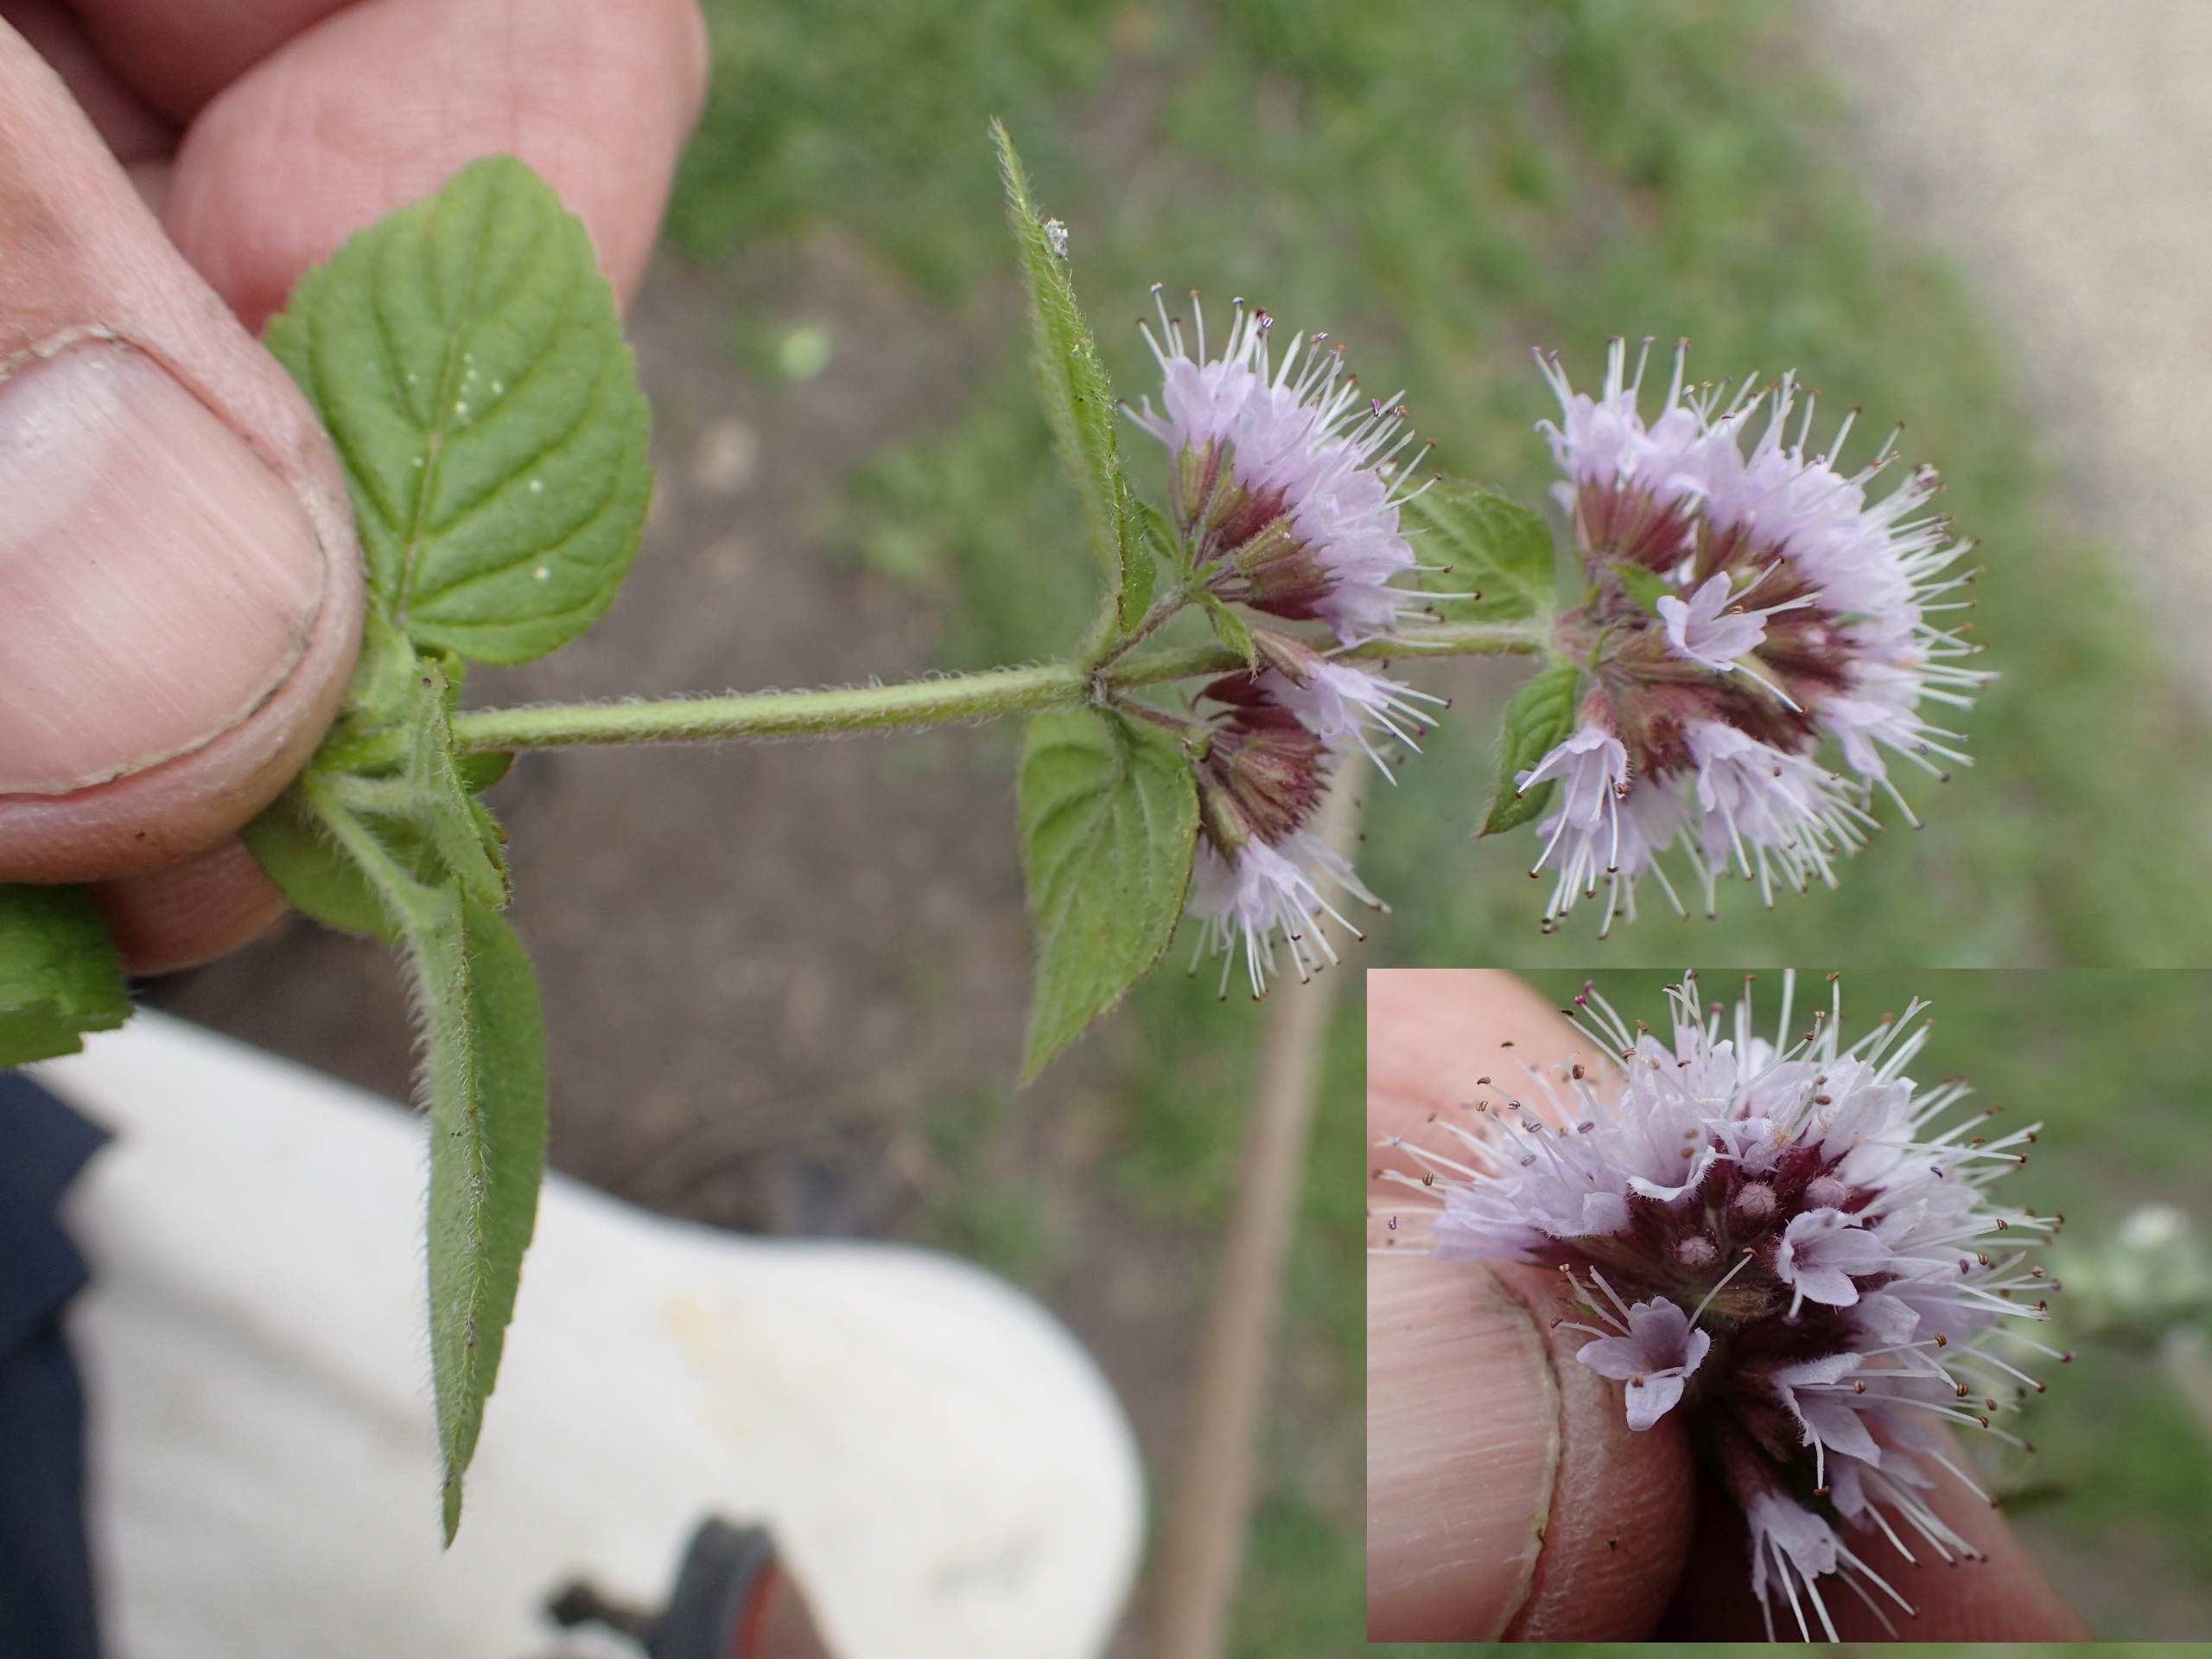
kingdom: Plantae
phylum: Tracheophyta
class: Magnoliopsida
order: Lamiales
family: Lamiaceae
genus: Mentha
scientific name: Mentha aquatica
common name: Vand-mynte
